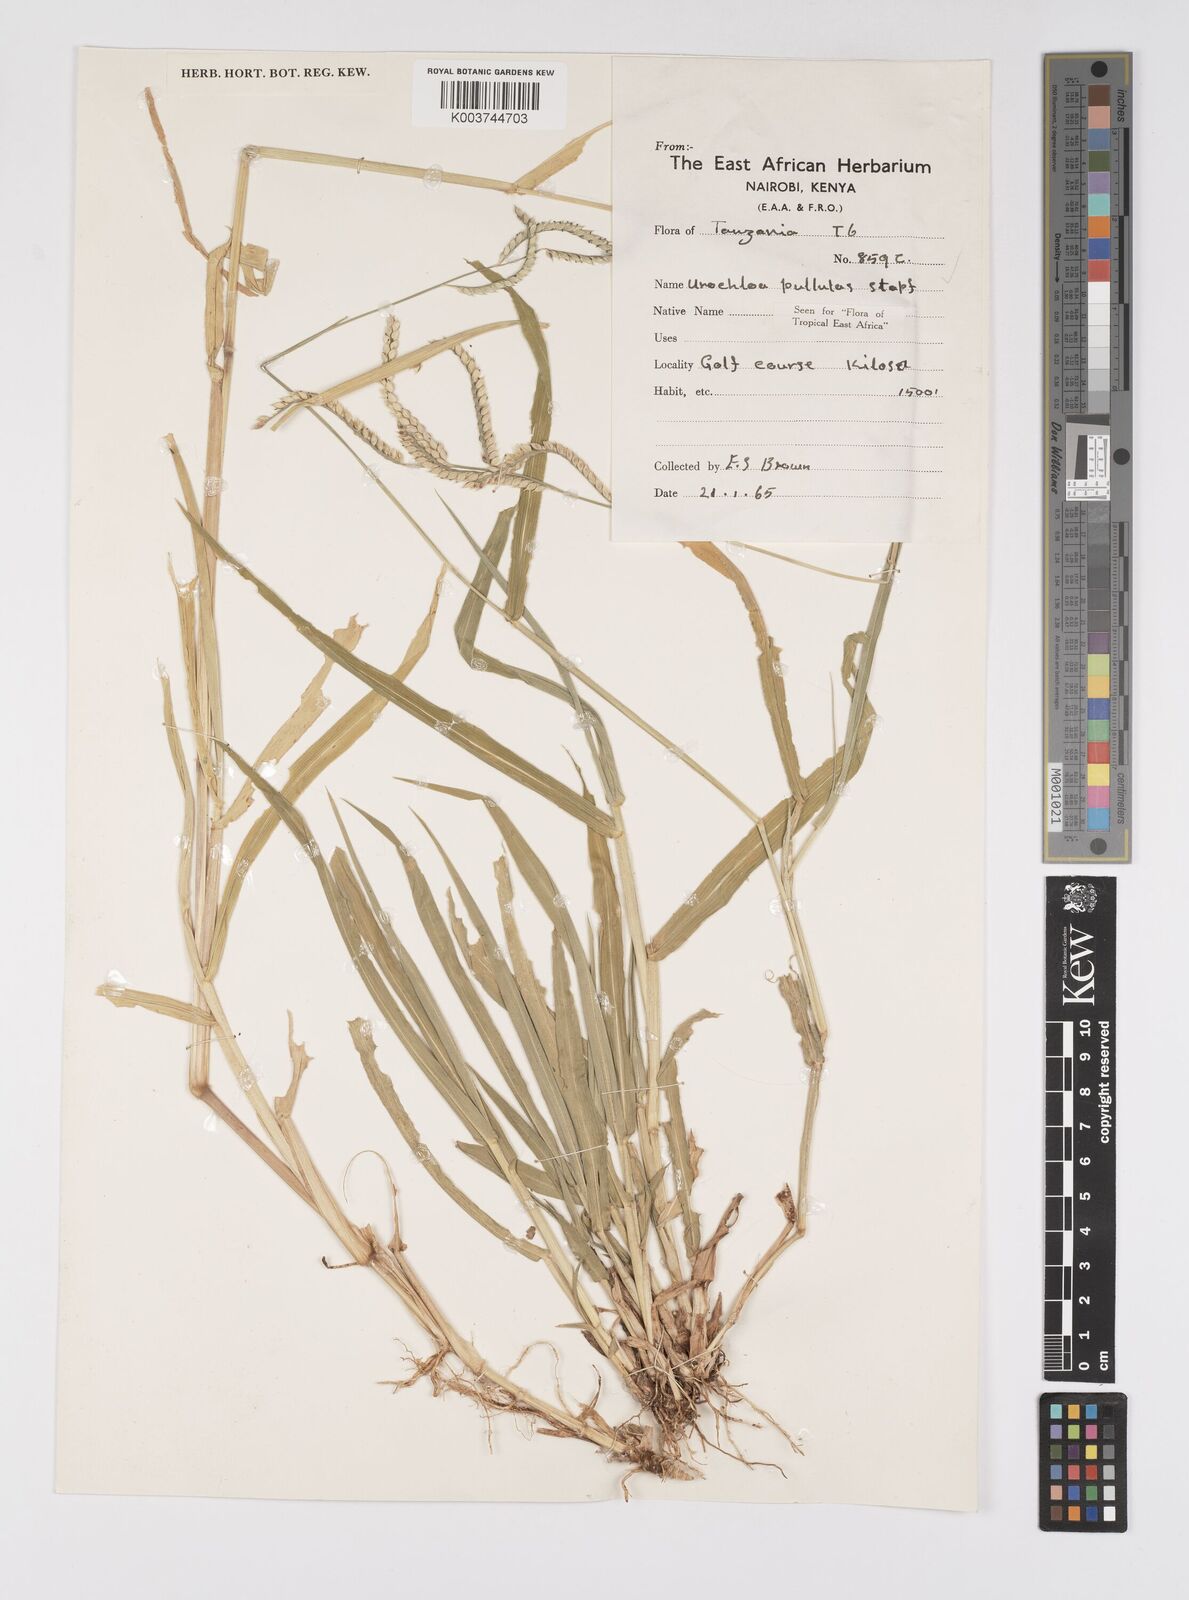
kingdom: Plantae
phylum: Tracheophyta
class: Liliopsida
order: Poales
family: Poaceae
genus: Urochloa
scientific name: Urochloa trichopus
